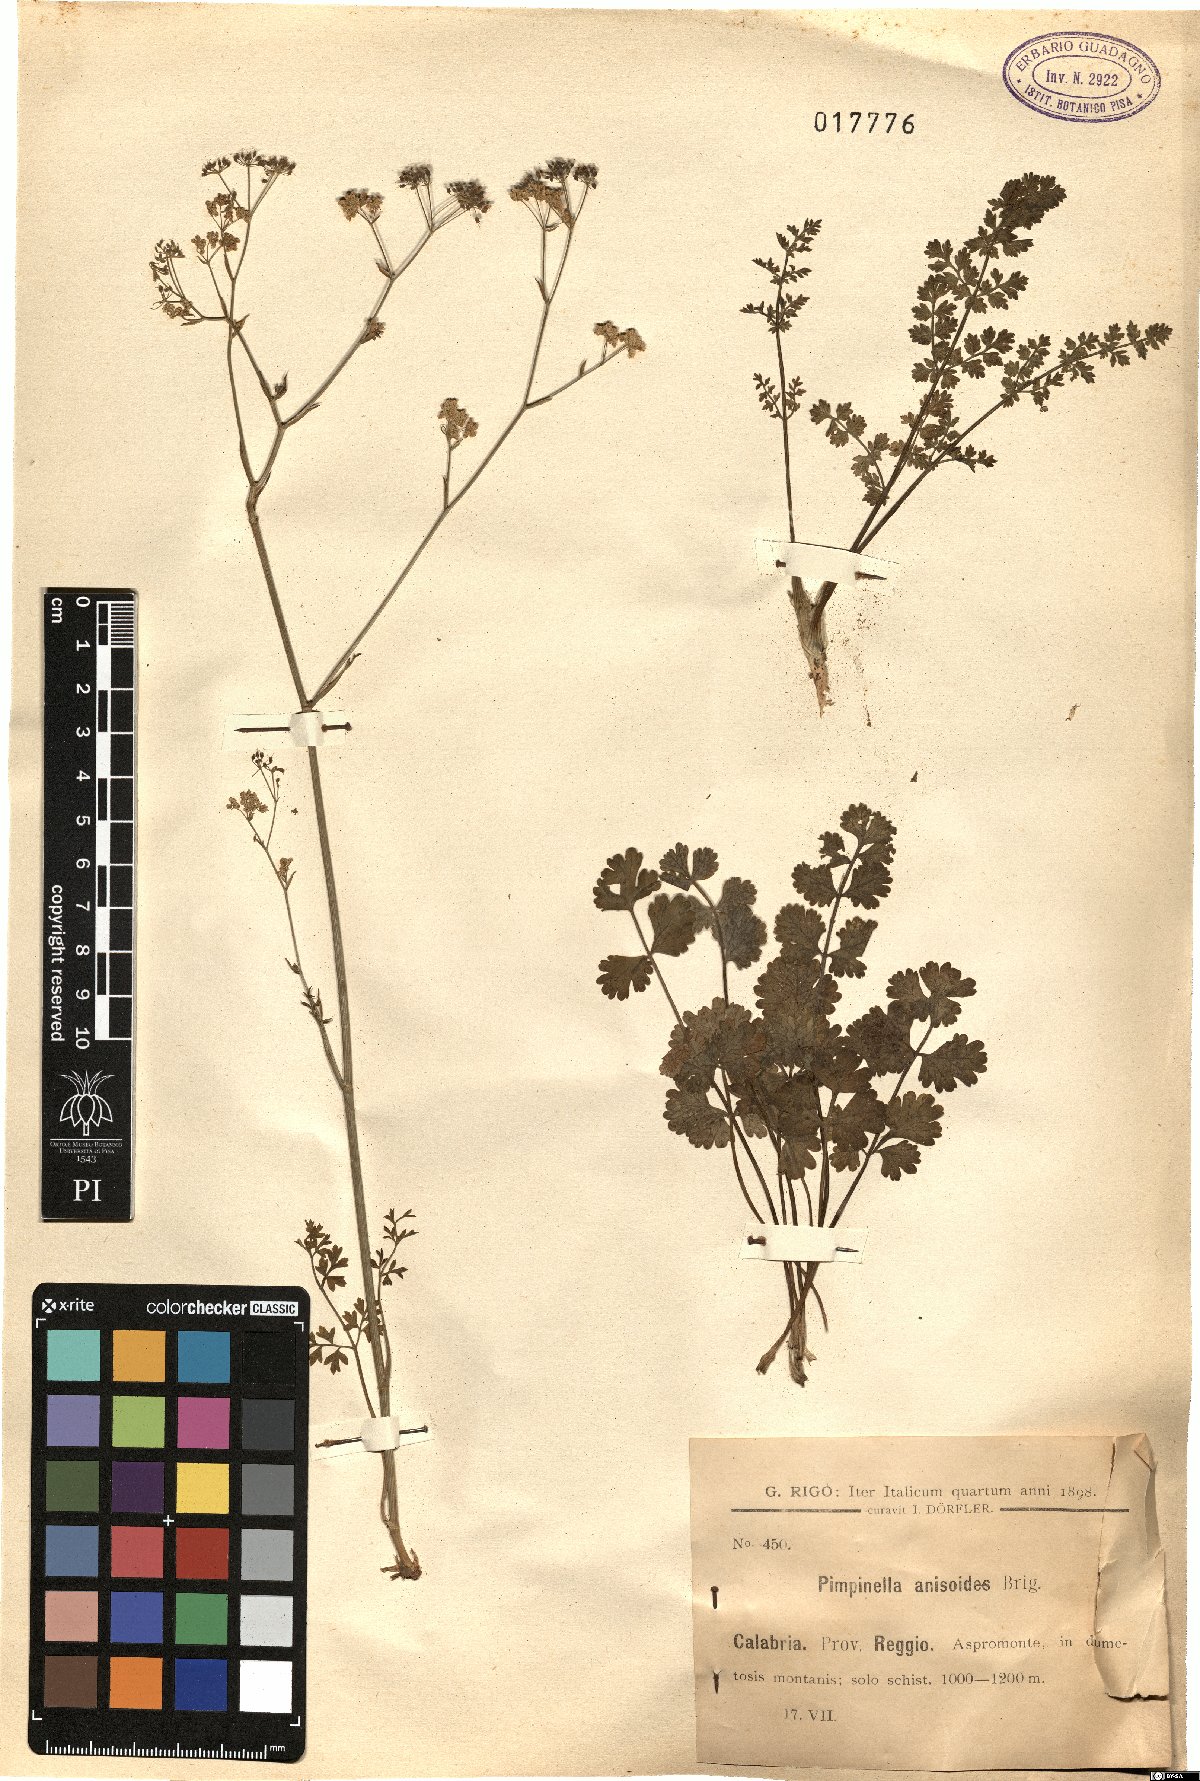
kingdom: Plantae
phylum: Tracheophyta
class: Magnoliopsida
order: Apiales
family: Apiaceae
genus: Pimpinella
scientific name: Pimpinella anisoides
